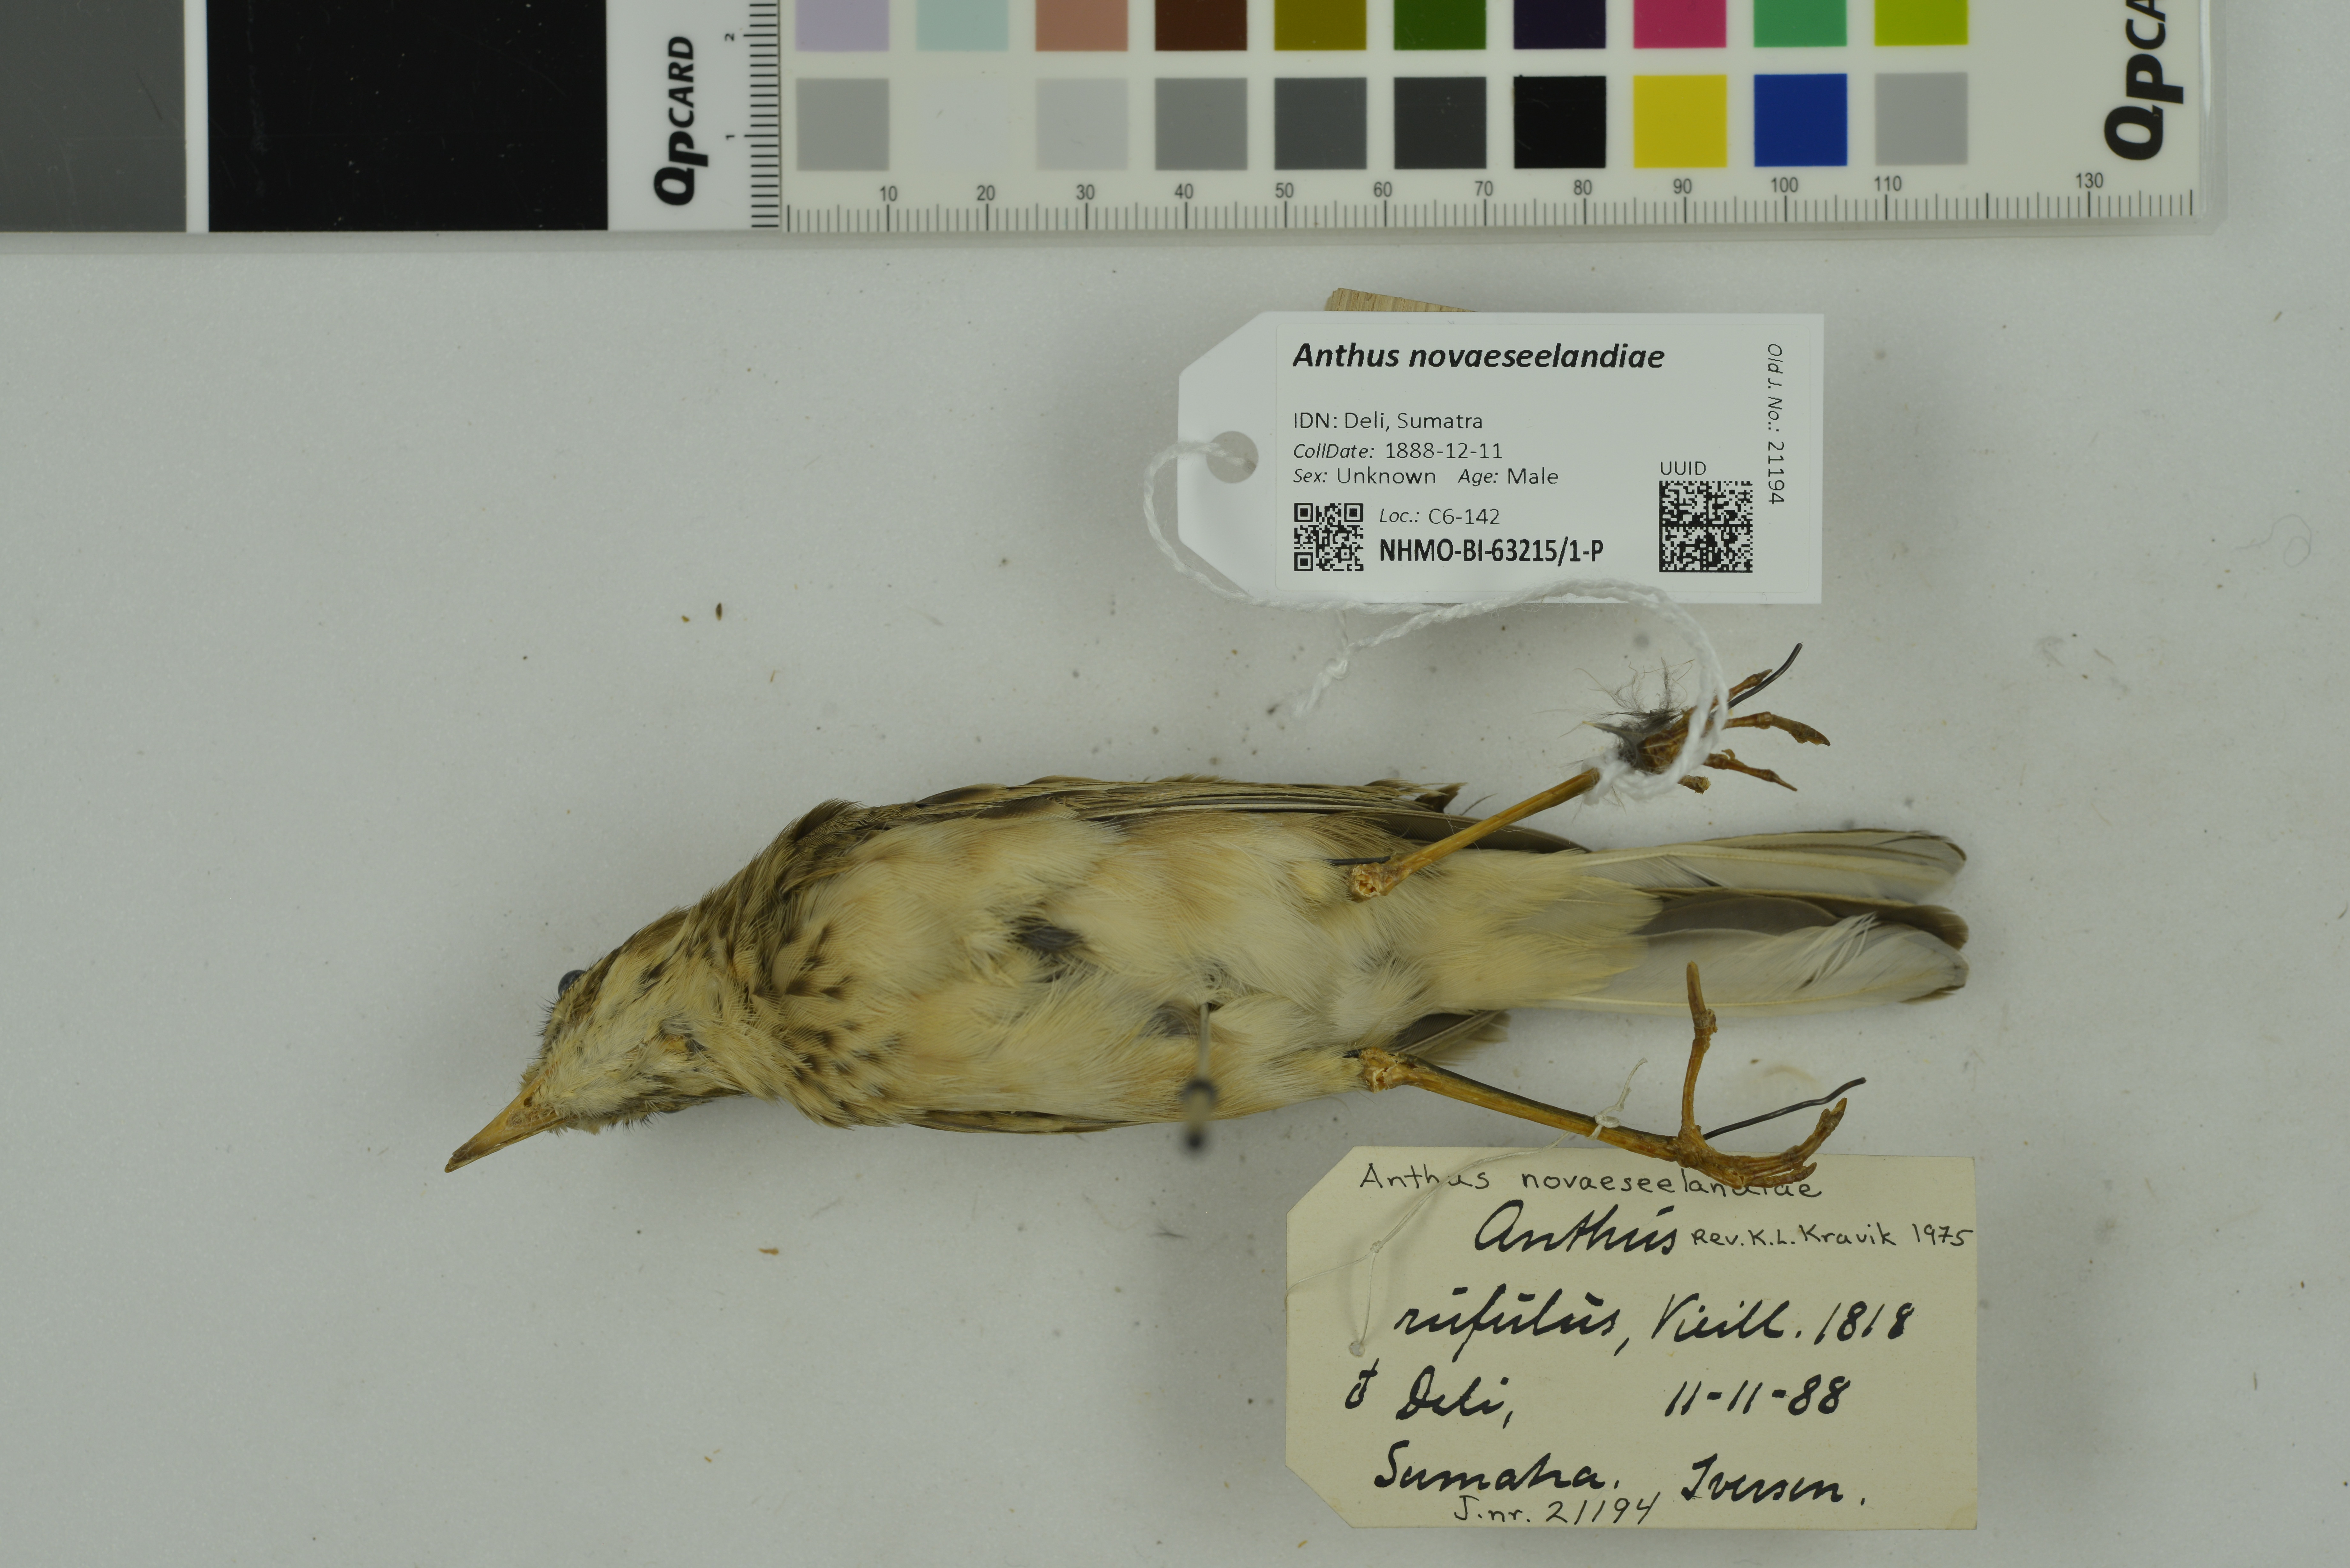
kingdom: Animalia
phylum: Chordata
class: Aves
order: Passeriformes
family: Motacillidae
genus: Anthus
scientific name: Anthus novaeseelandiae
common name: New zealand pipit
